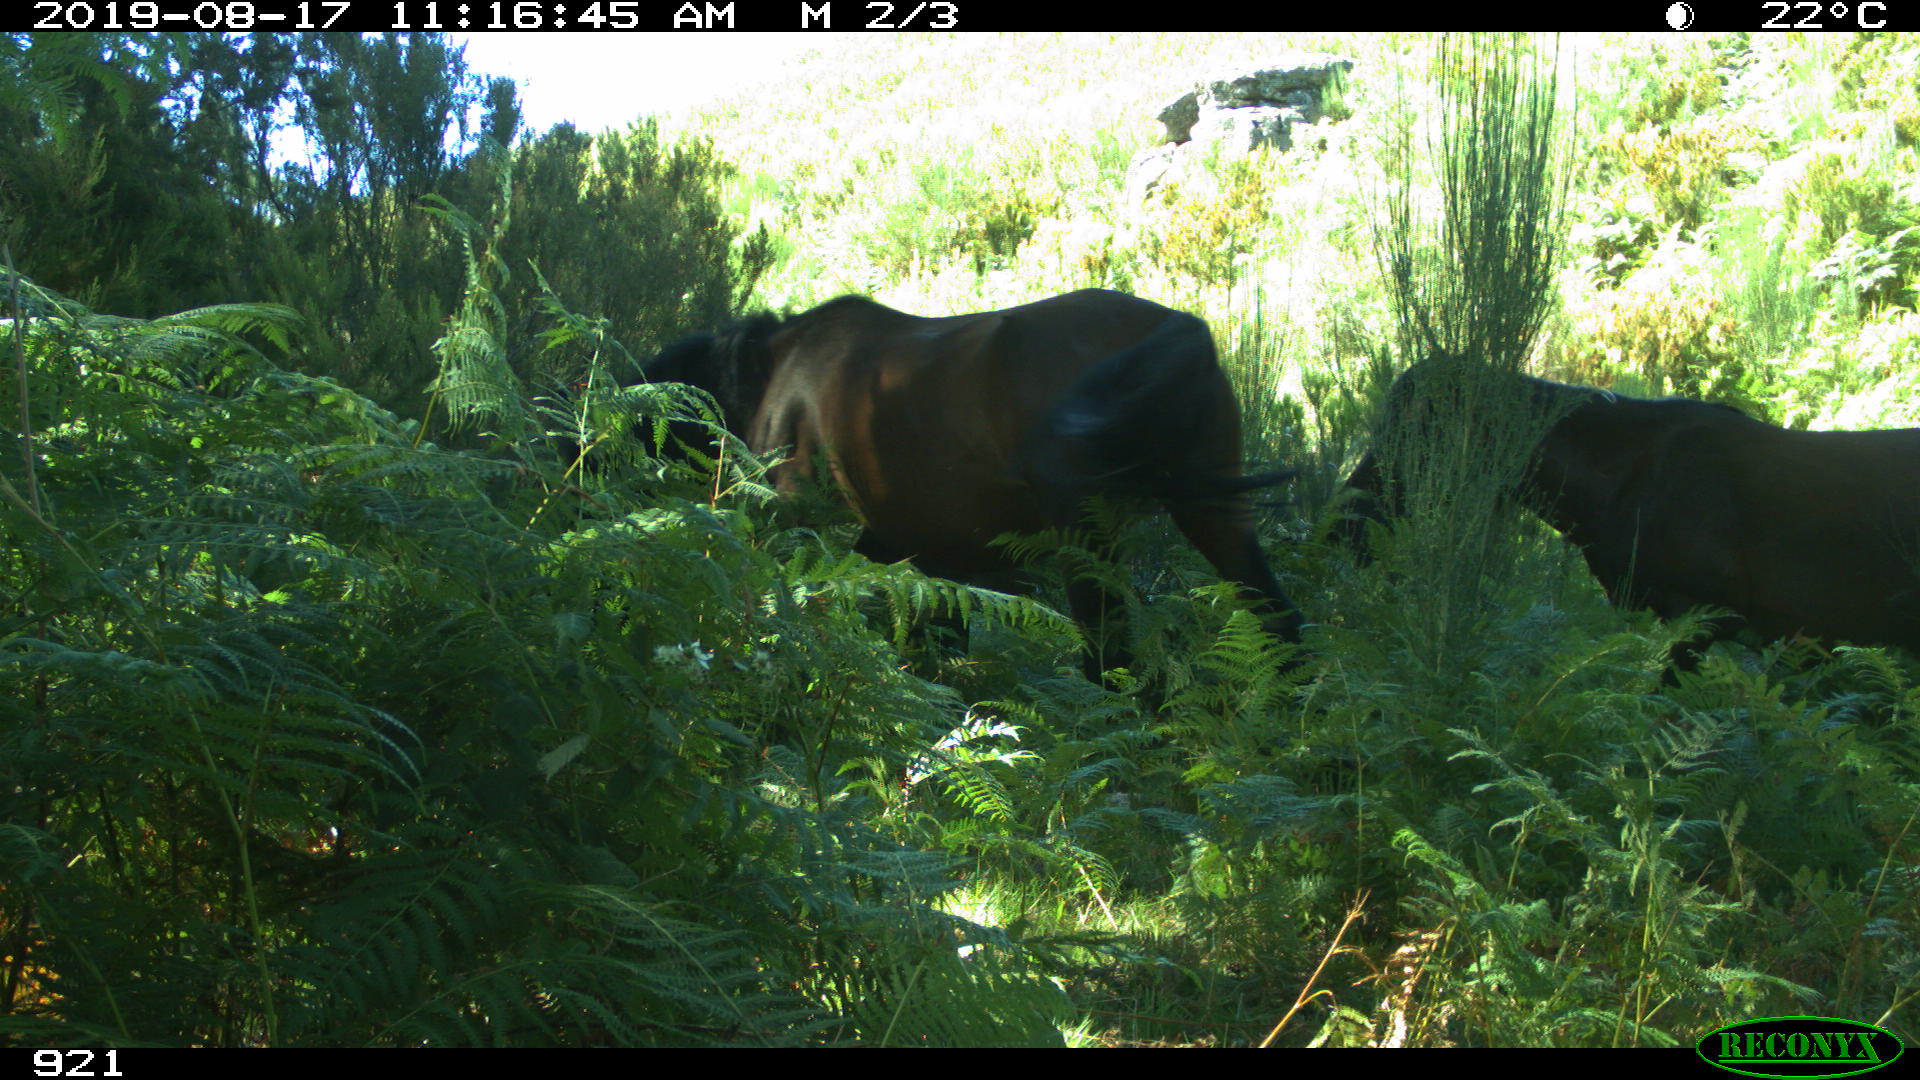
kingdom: Animalia
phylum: Chordata
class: Mammalia
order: Perissodactyla
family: Equidae
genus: Equus
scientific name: Equus caballus
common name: Horse
